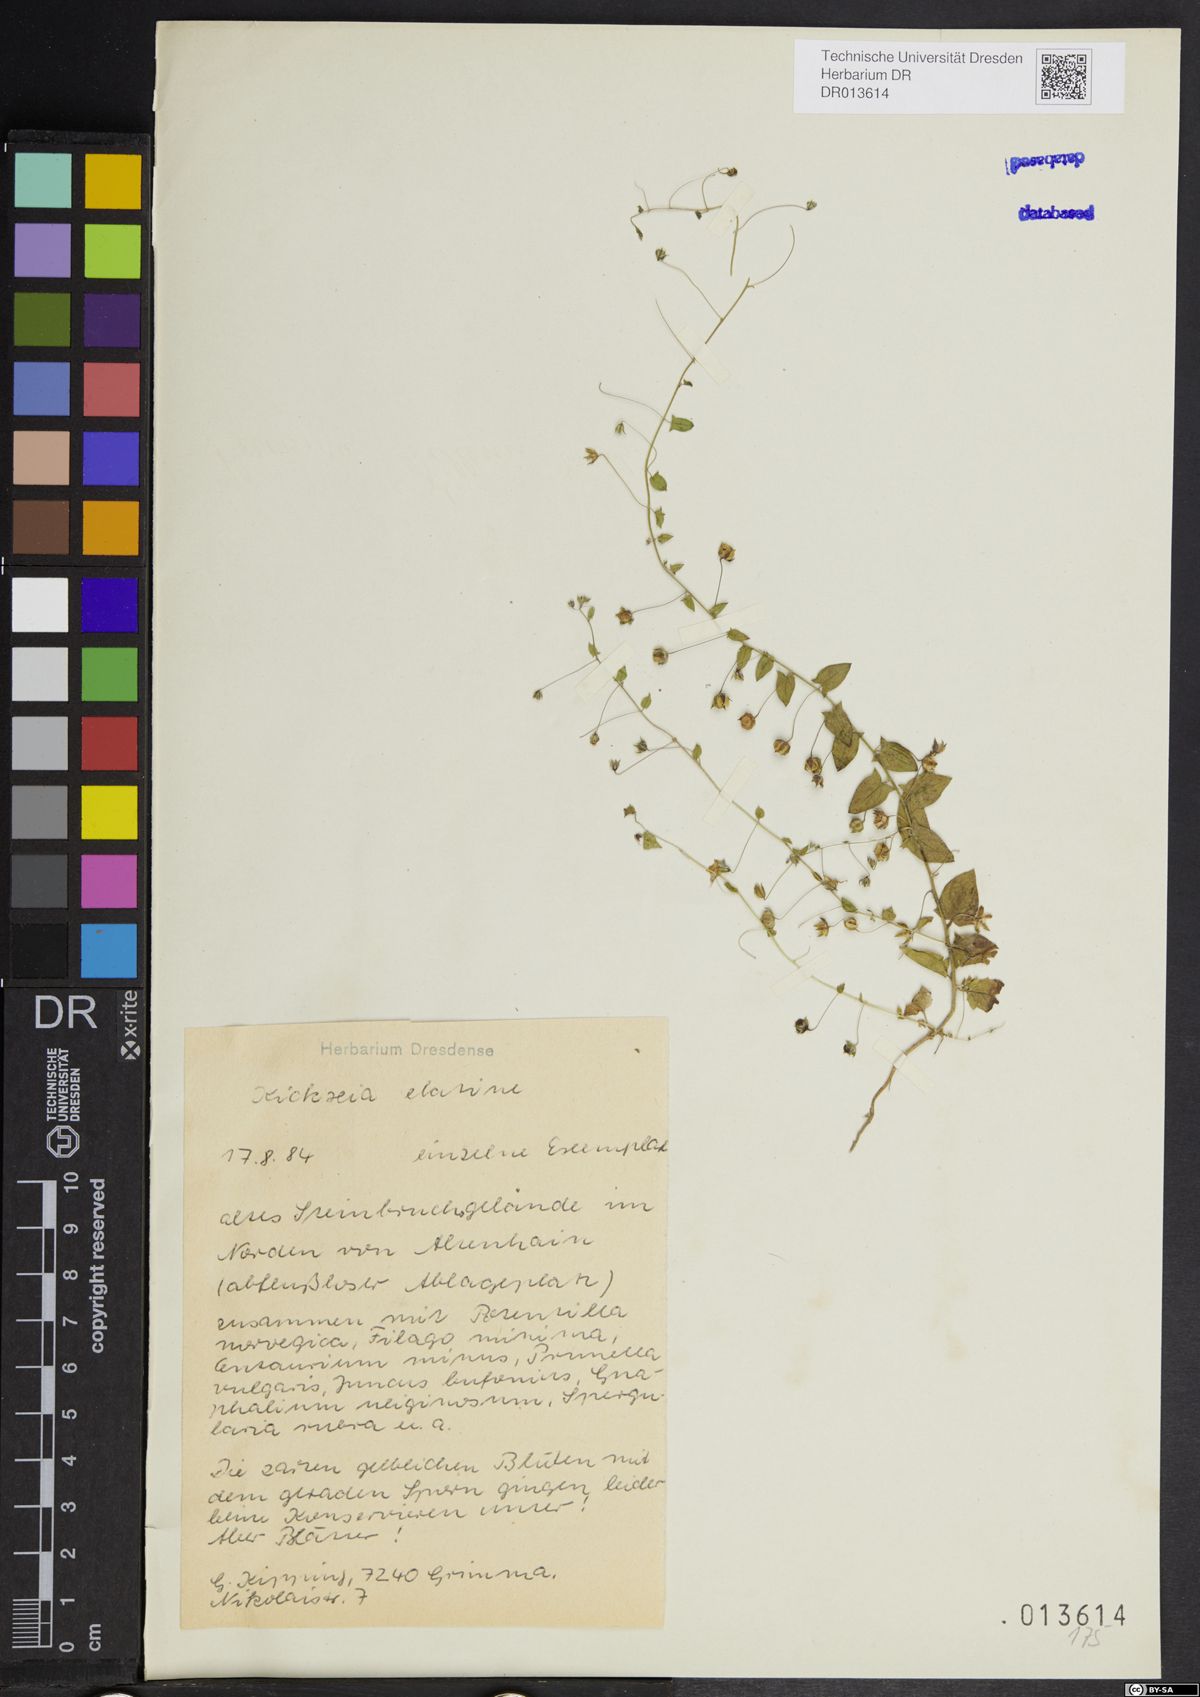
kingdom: Plantae
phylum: Tracheophyta
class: Magnoliopsida
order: Lamiales
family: Plantaginaceae
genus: Kickxia
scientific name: Kickxia elatine
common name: Sharp-leaved fluellen
